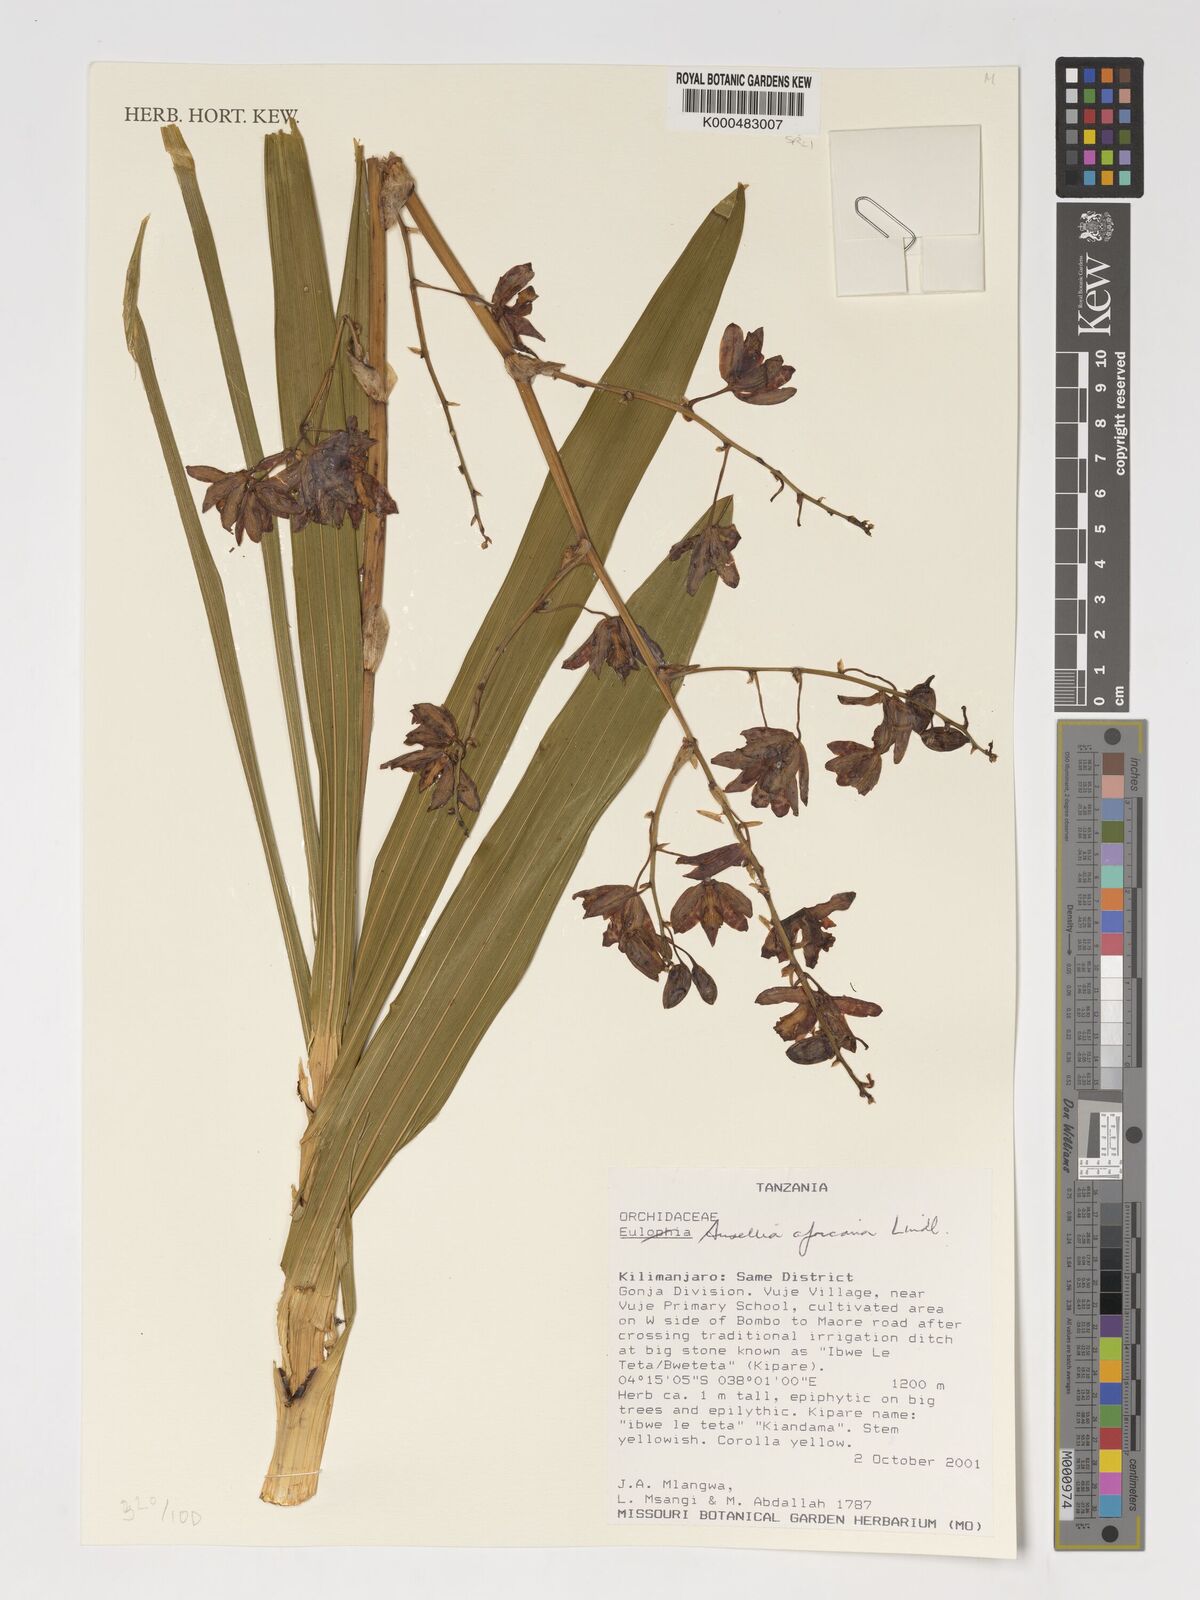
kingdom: Plantae
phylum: Tracheophyta
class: Liliopsida
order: Asparagales
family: Orchidaceae
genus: Ansellia
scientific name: Ansellia africana
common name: African ansellia
